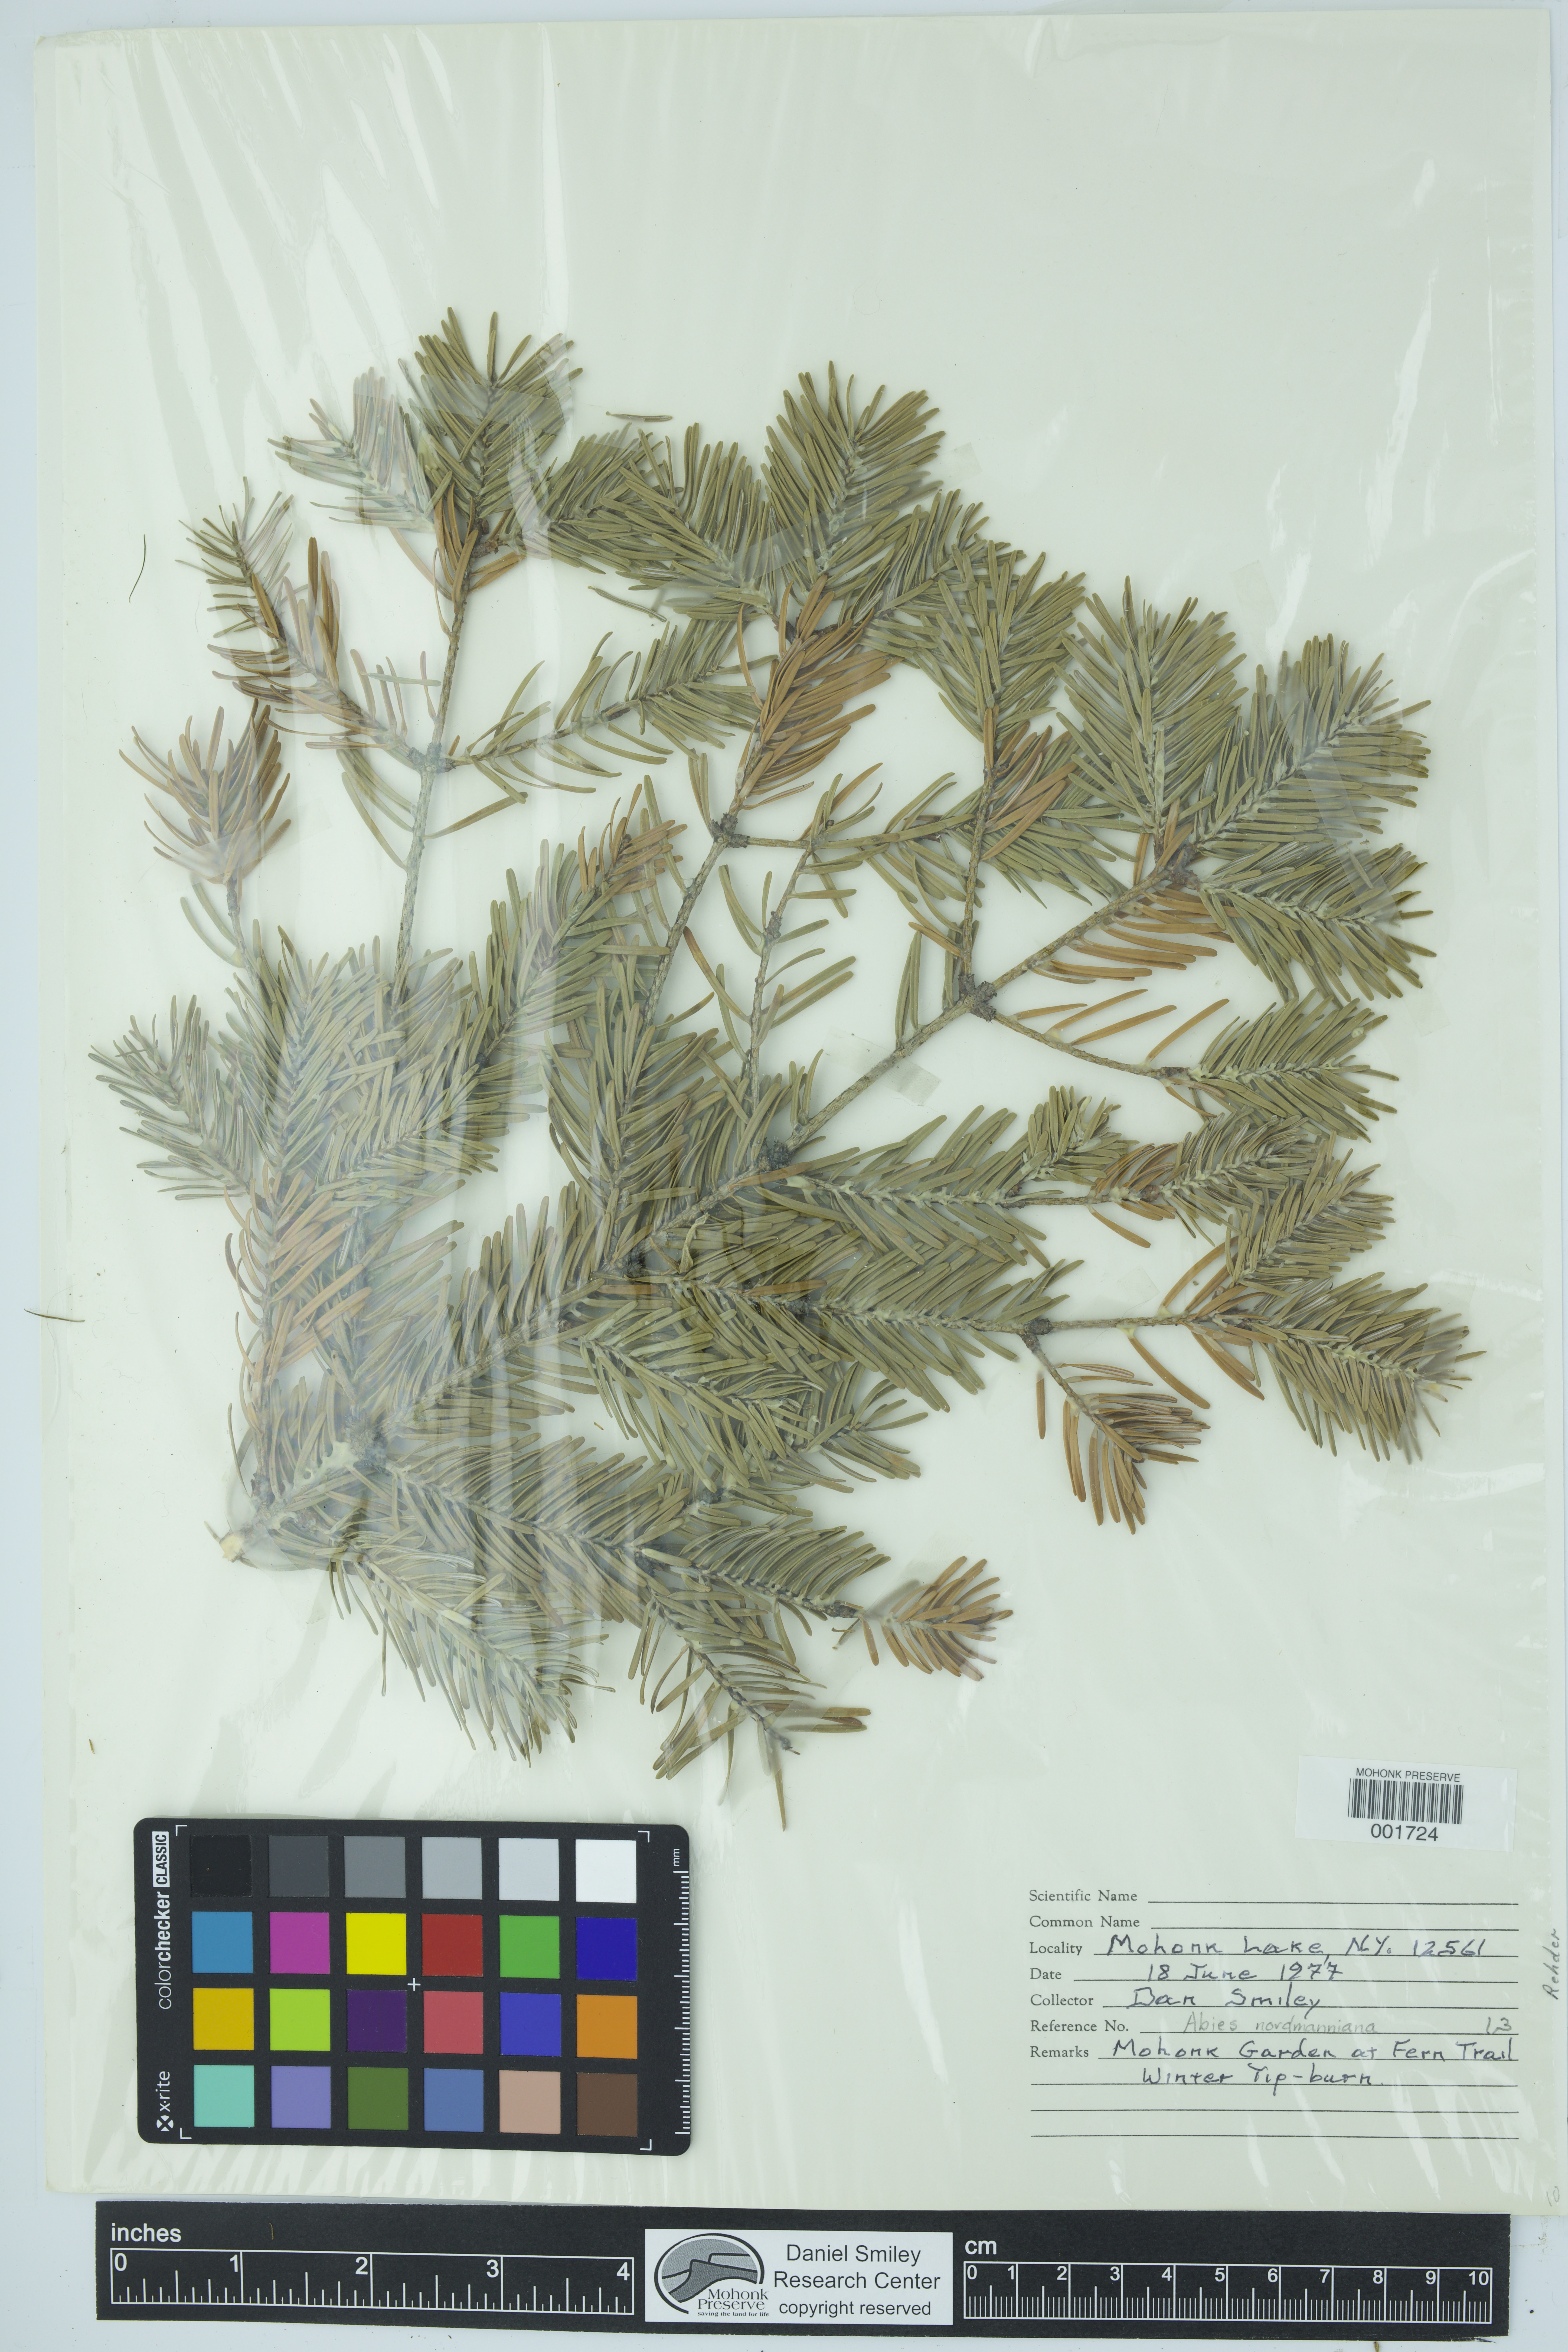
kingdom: Plantae
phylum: Tracheophyta
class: Pinopsida
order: Pinales
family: Pinaceae
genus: Abies
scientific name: Abies nordmanniana
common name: Caucasian fir
